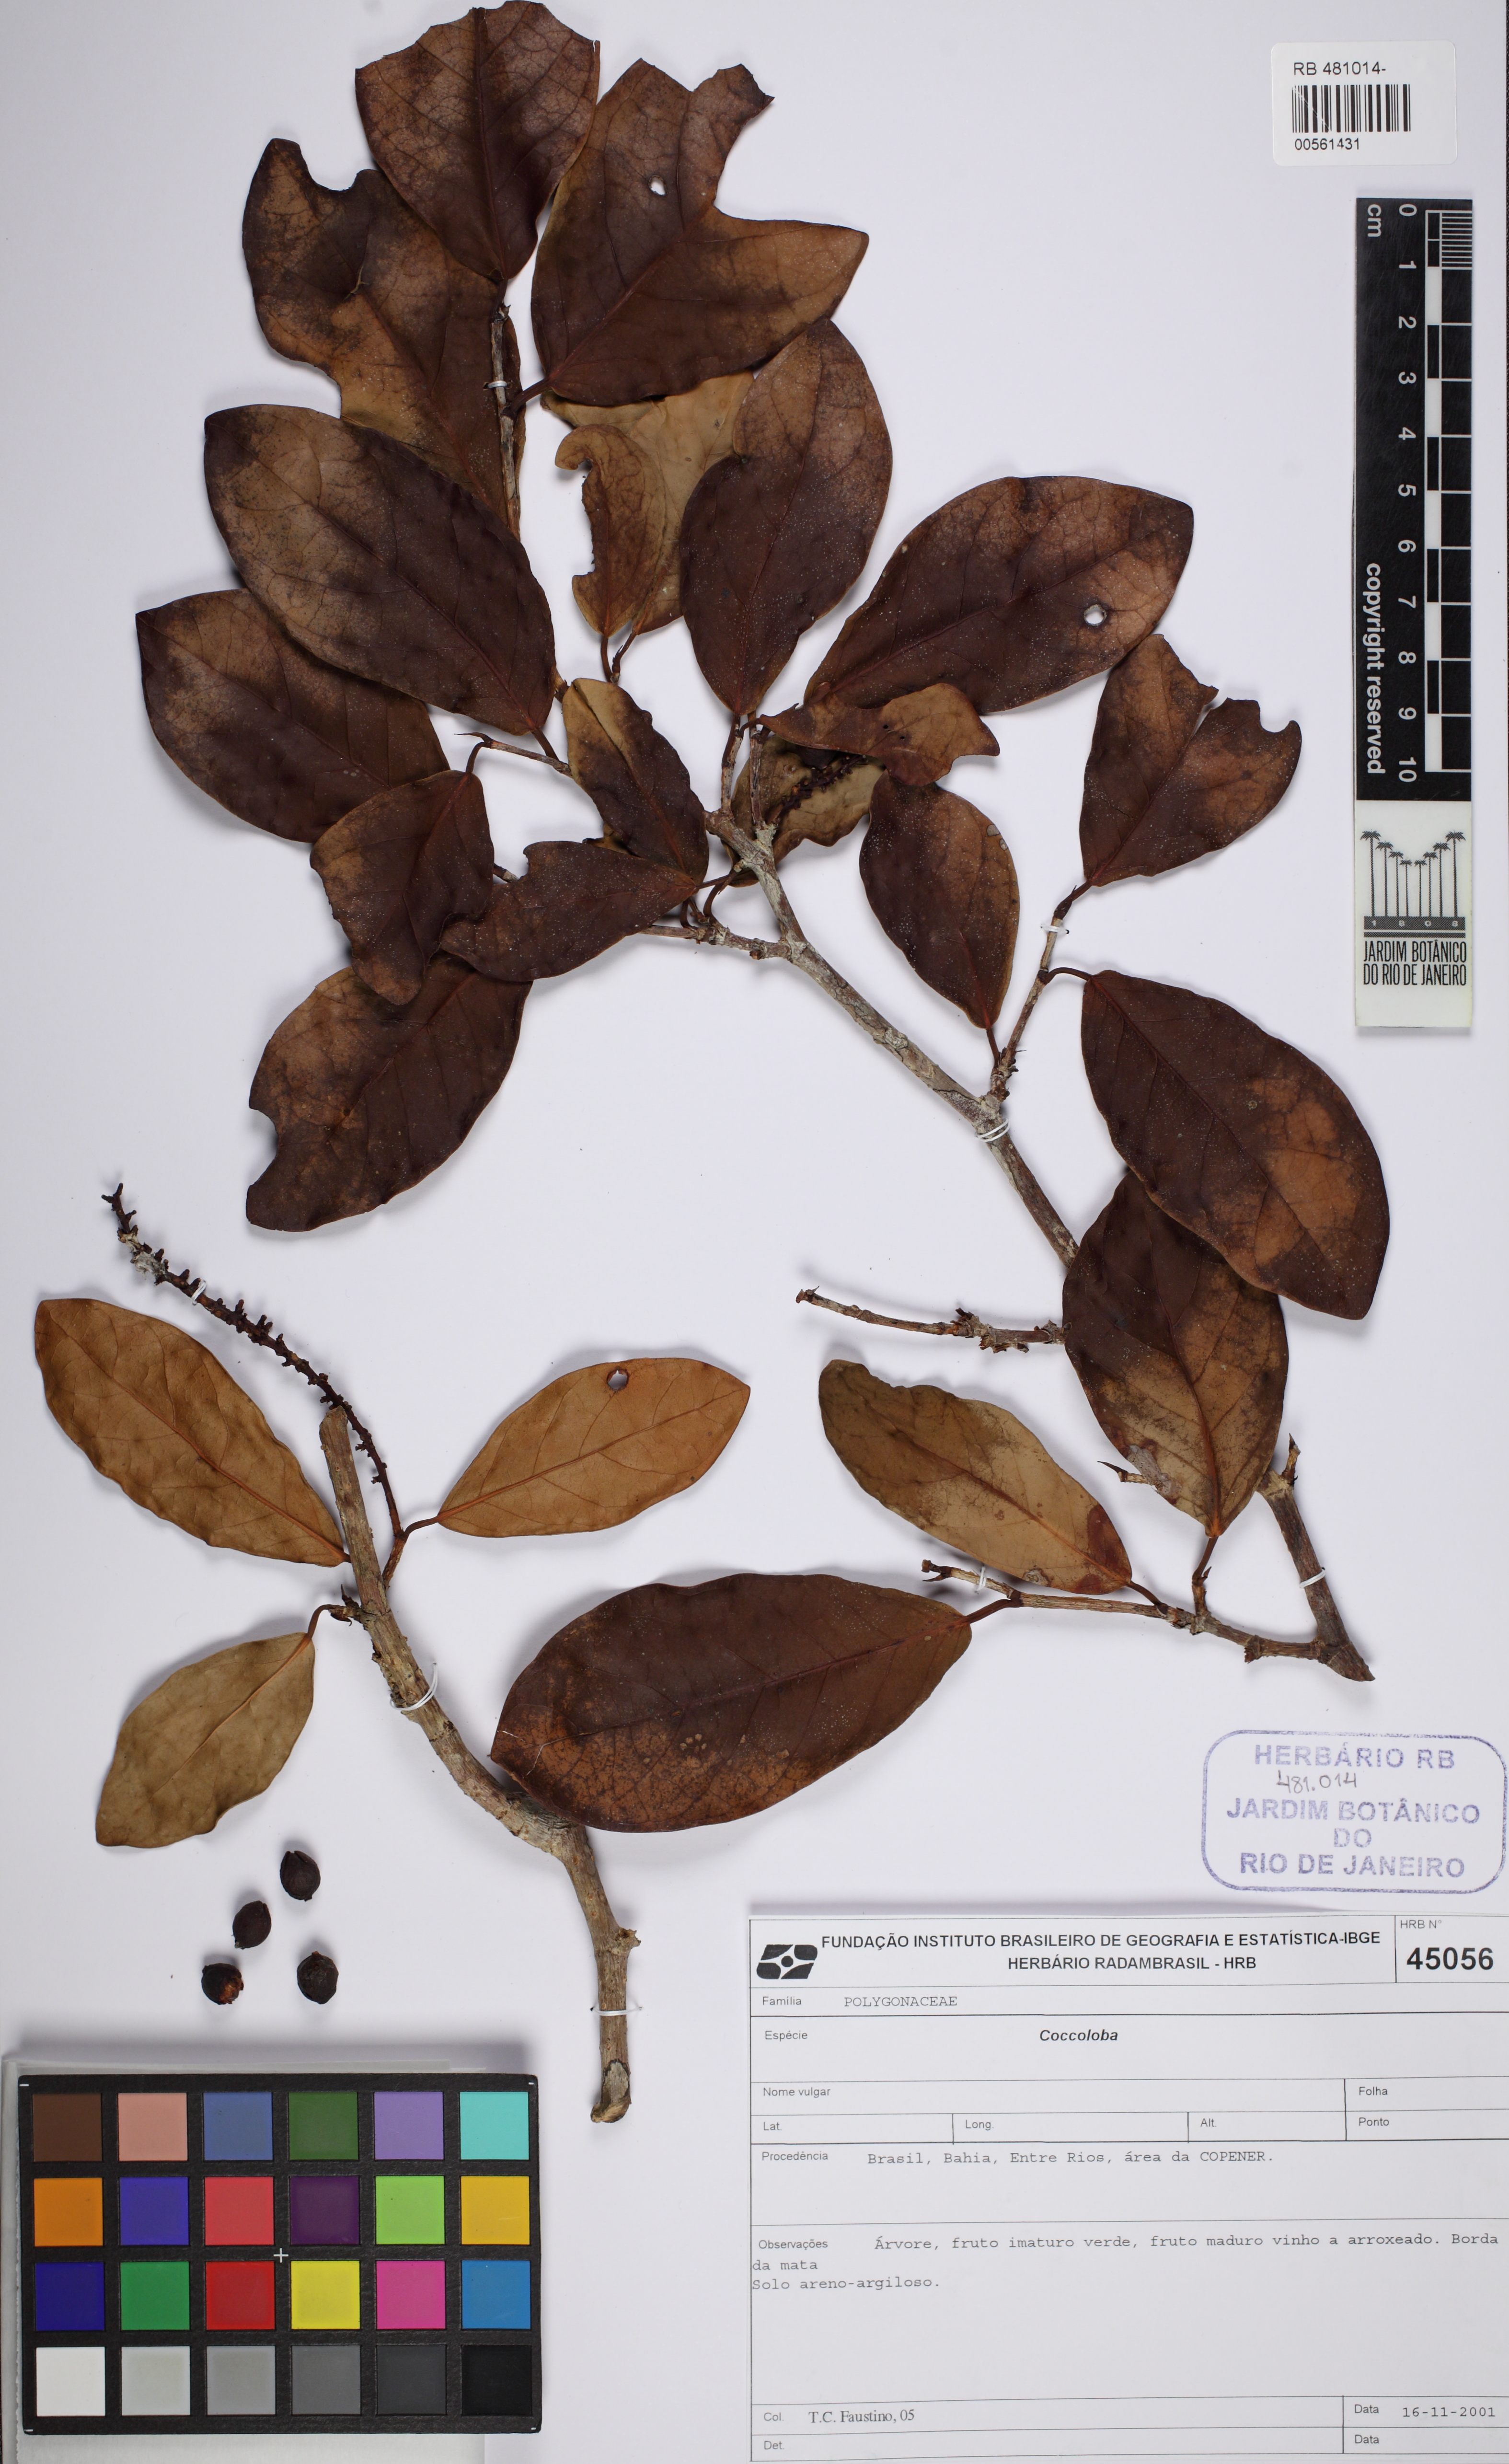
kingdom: Plantae
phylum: Tracheophyta
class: Magnoliopsida
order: Caryophyllales
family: Polygonaceae
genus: Coccoloba
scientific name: Coccoloba
